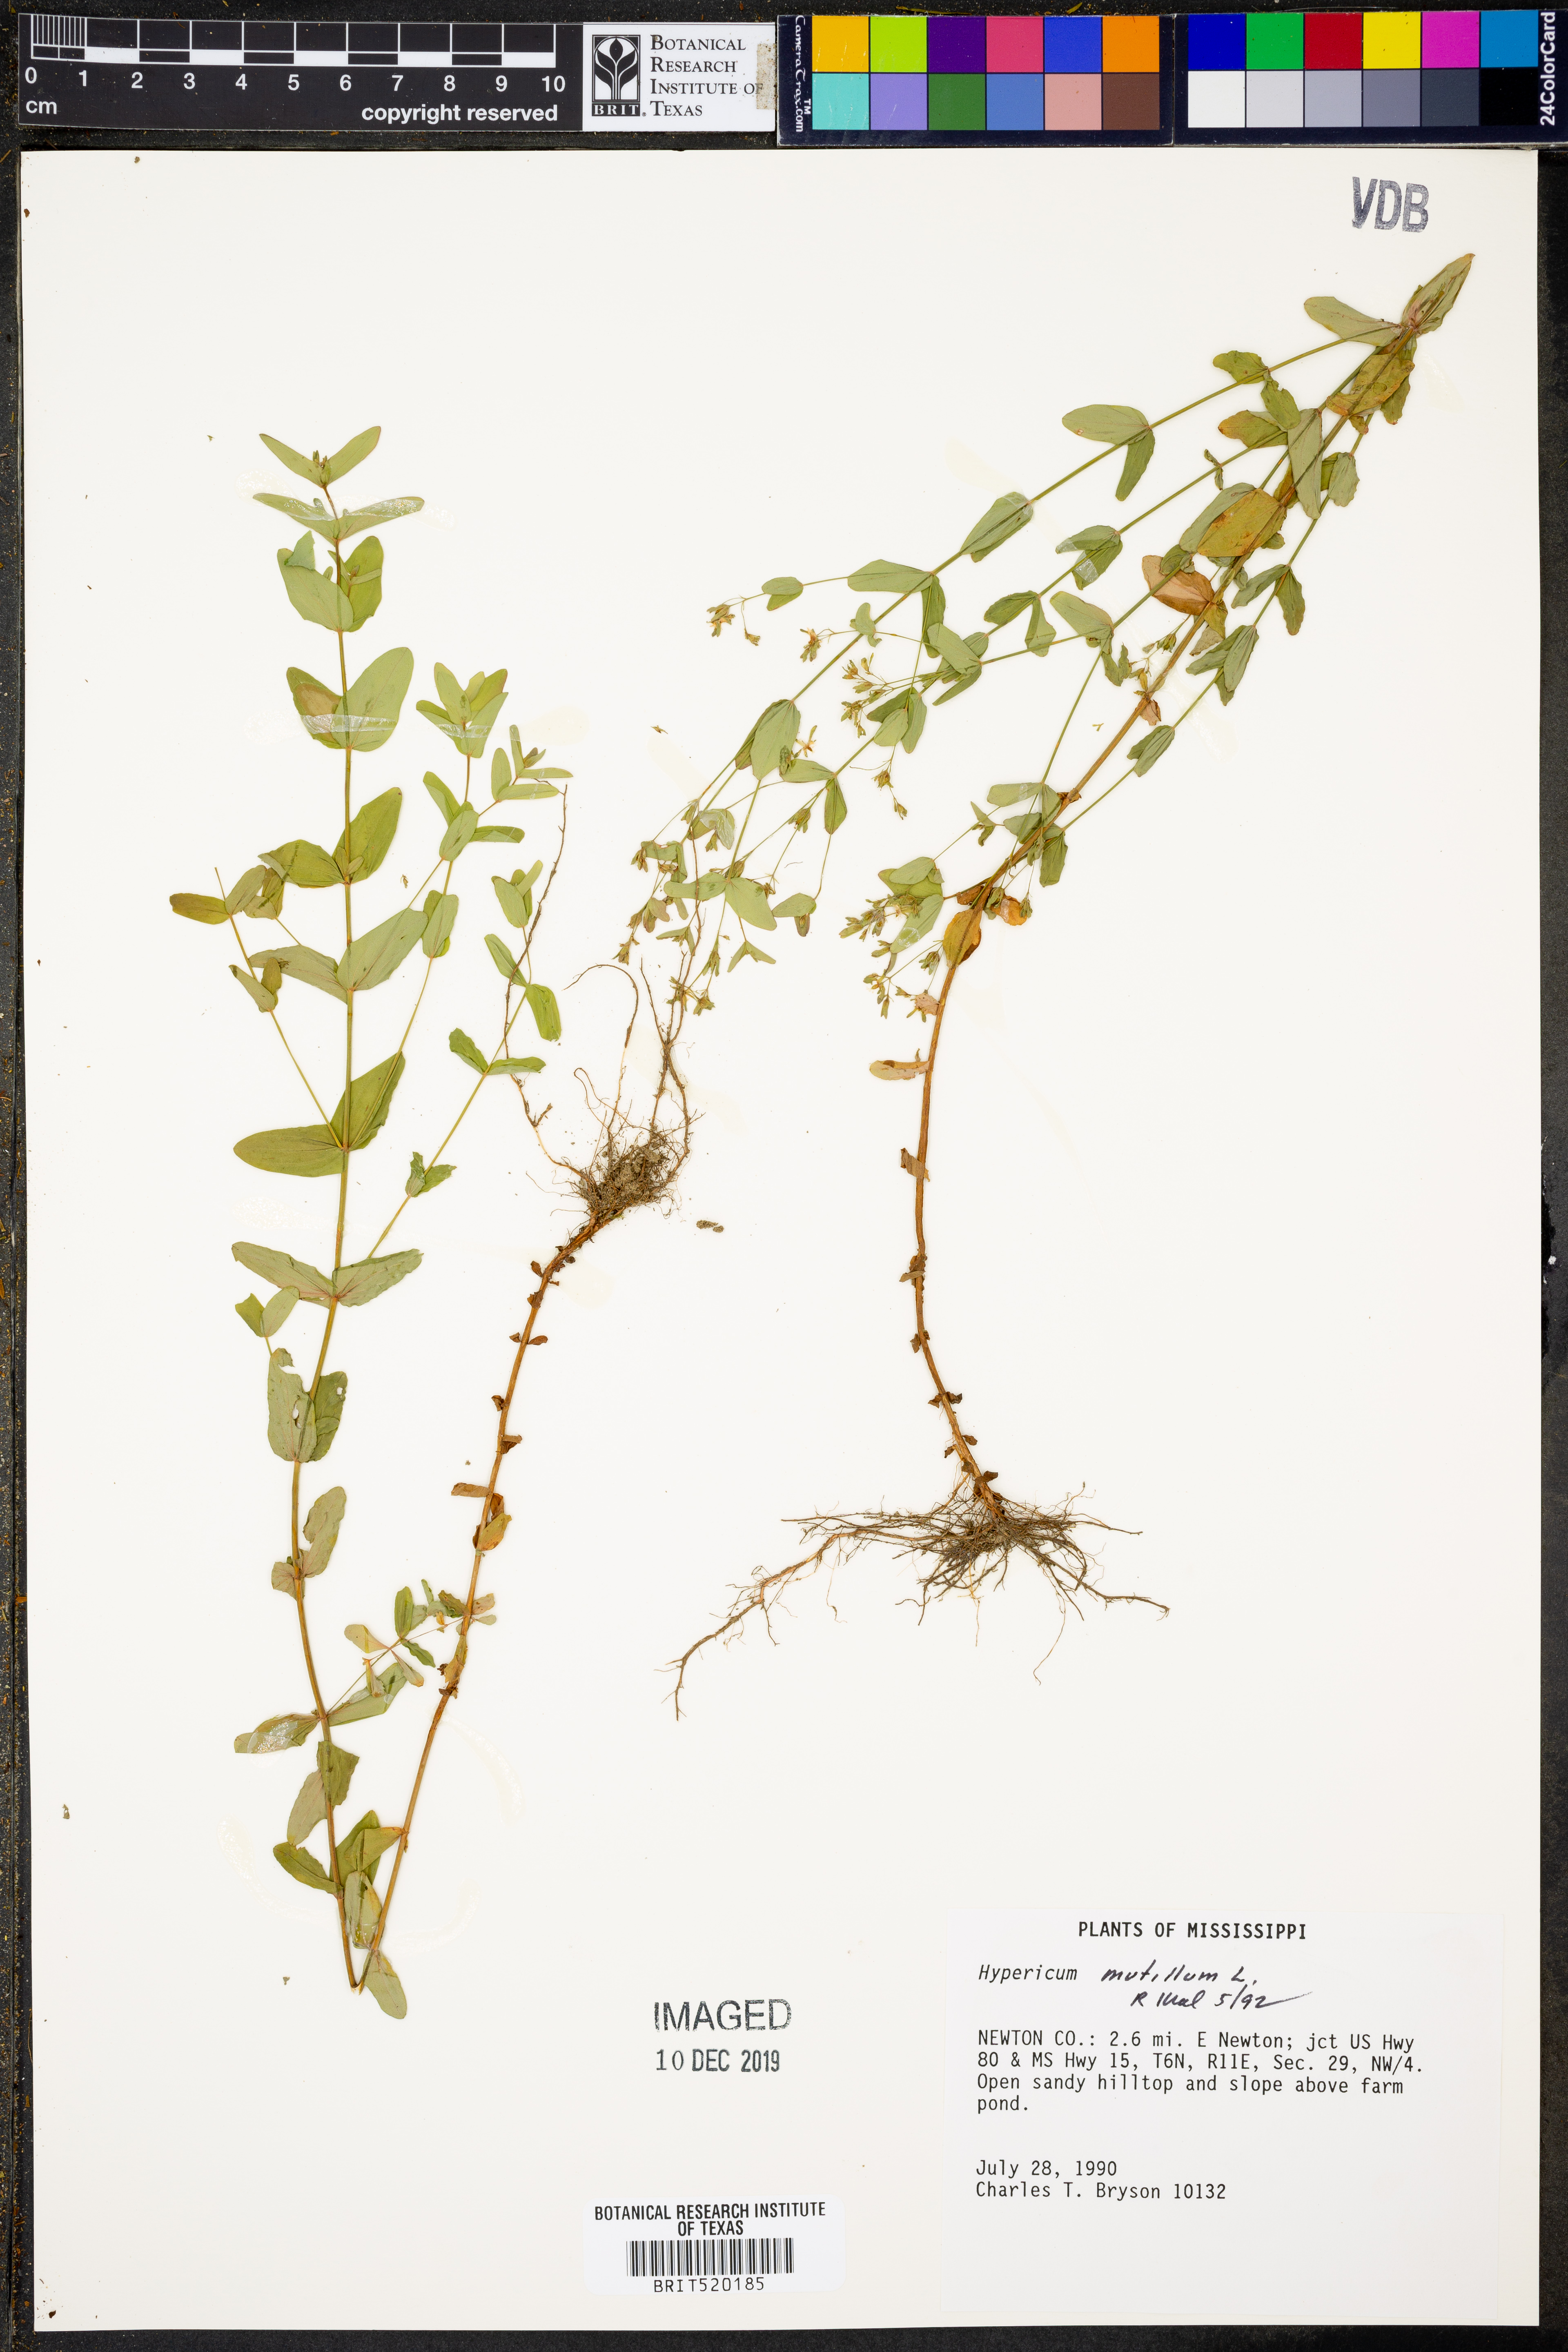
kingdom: Plantae
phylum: Tracheophyta
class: Magnoliopsida
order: Malpighiales
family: Hypericaceae
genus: Hypericum
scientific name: Hypericum mutilum
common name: Dwarf st. john's-wort
